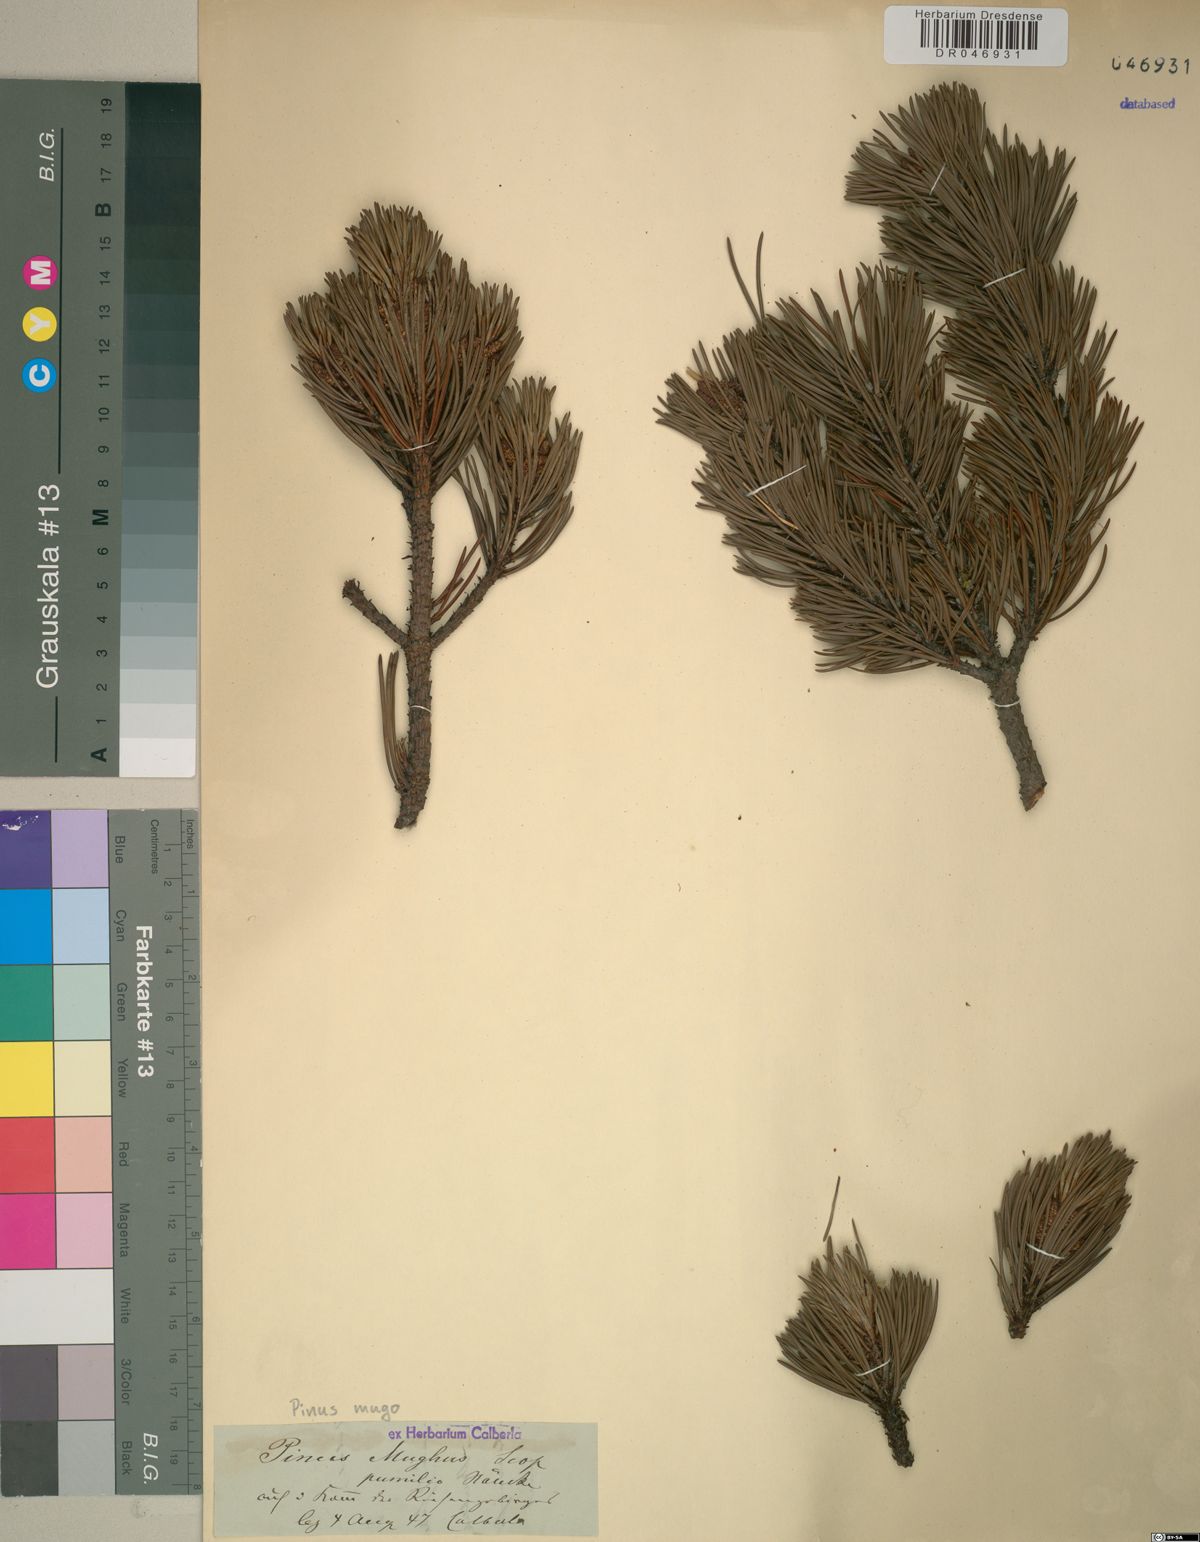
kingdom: Plantae
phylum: Tracheophyta
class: Pinopsida
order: Pinales
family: Pinaceae
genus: Pinus
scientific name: Pinus mugo
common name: Mugo pine
